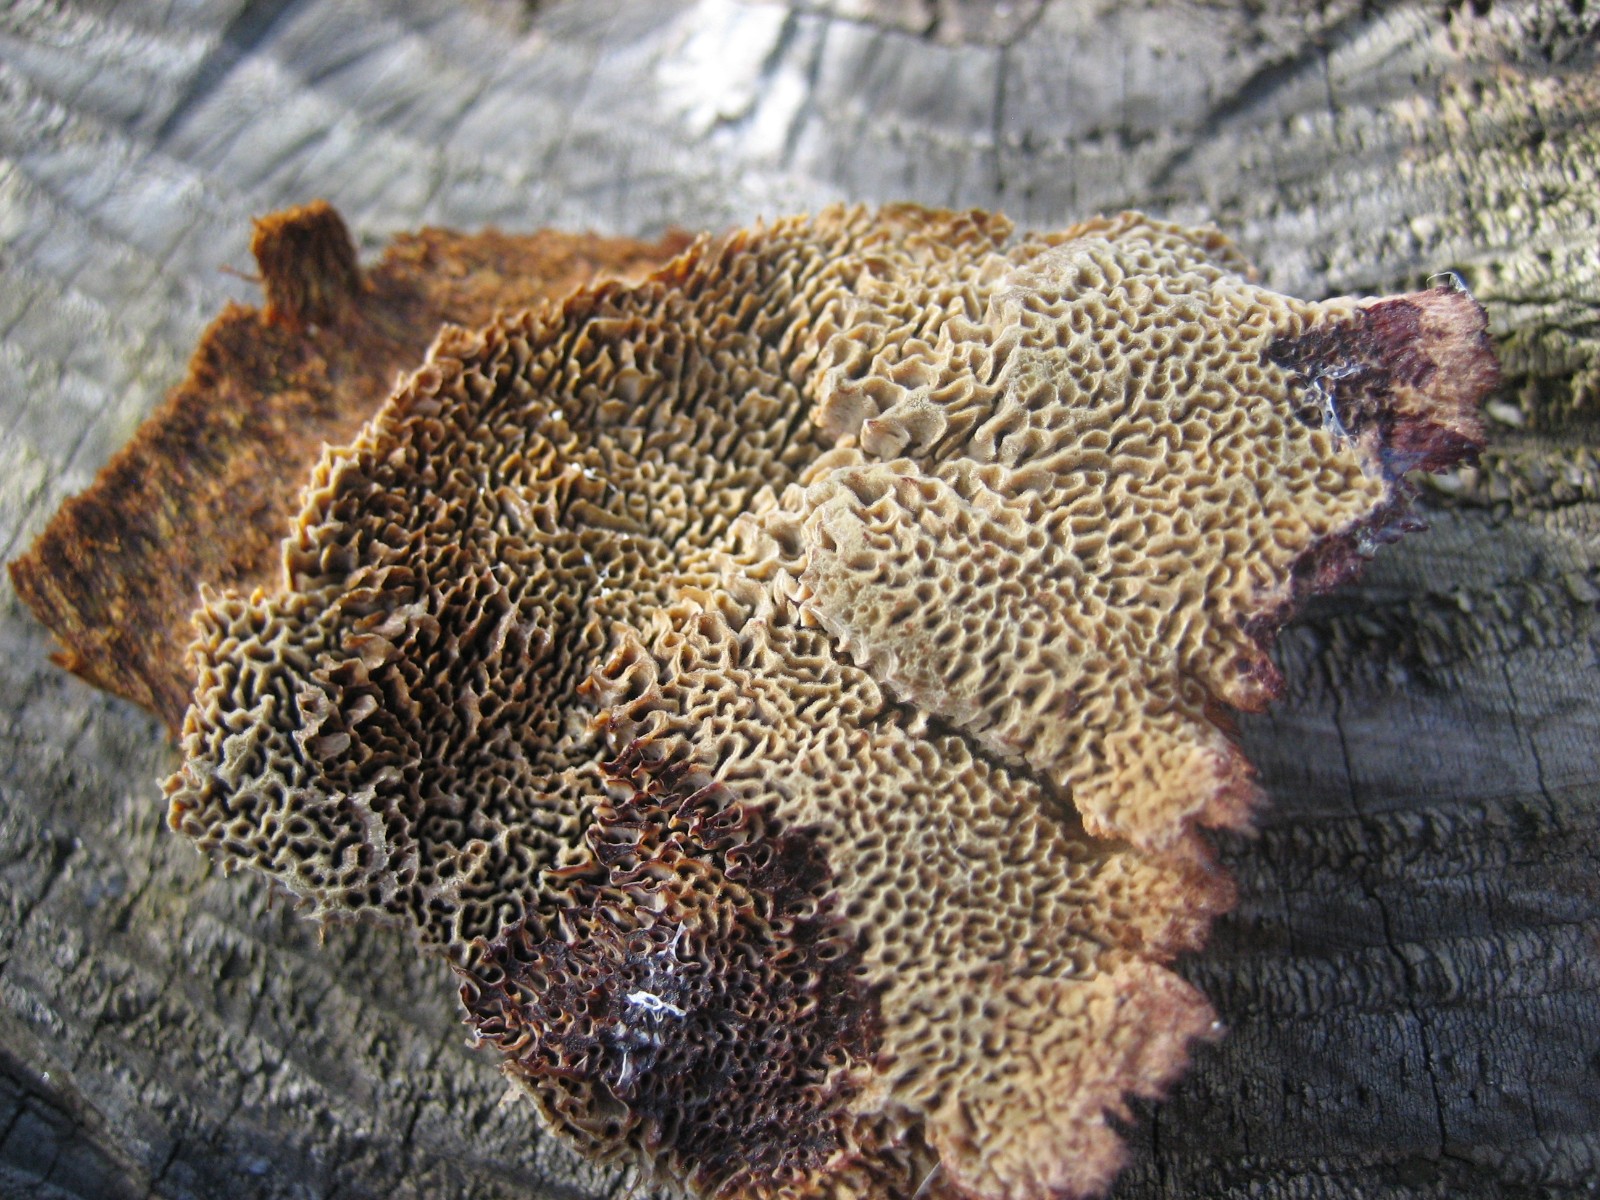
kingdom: Fungi
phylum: Basidiomycota
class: Agaricomycetes
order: Polyporales
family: Laetiporaceae
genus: Phaeolus
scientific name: Phaeolus schweinitzii
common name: brunporesvamp
